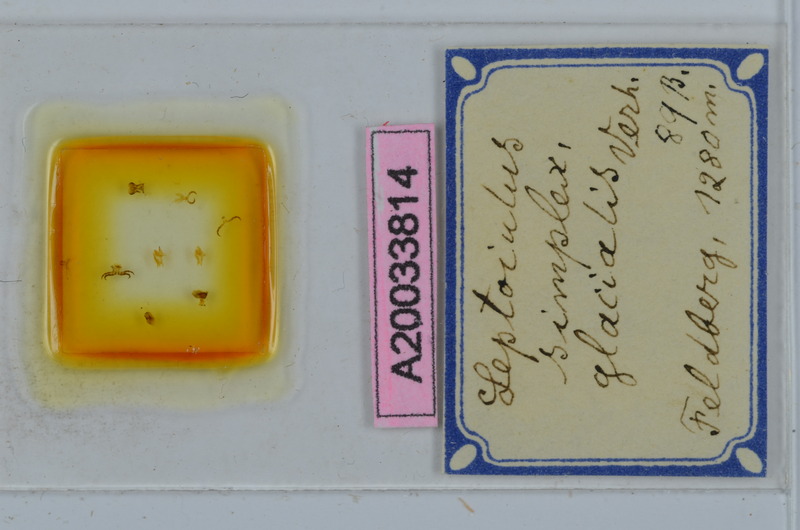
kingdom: Animalia
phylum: Arthropoda
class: Diplopoda
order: Julida
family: Julidae
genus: Leptoiulus
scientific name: Leptoiulus simplex
